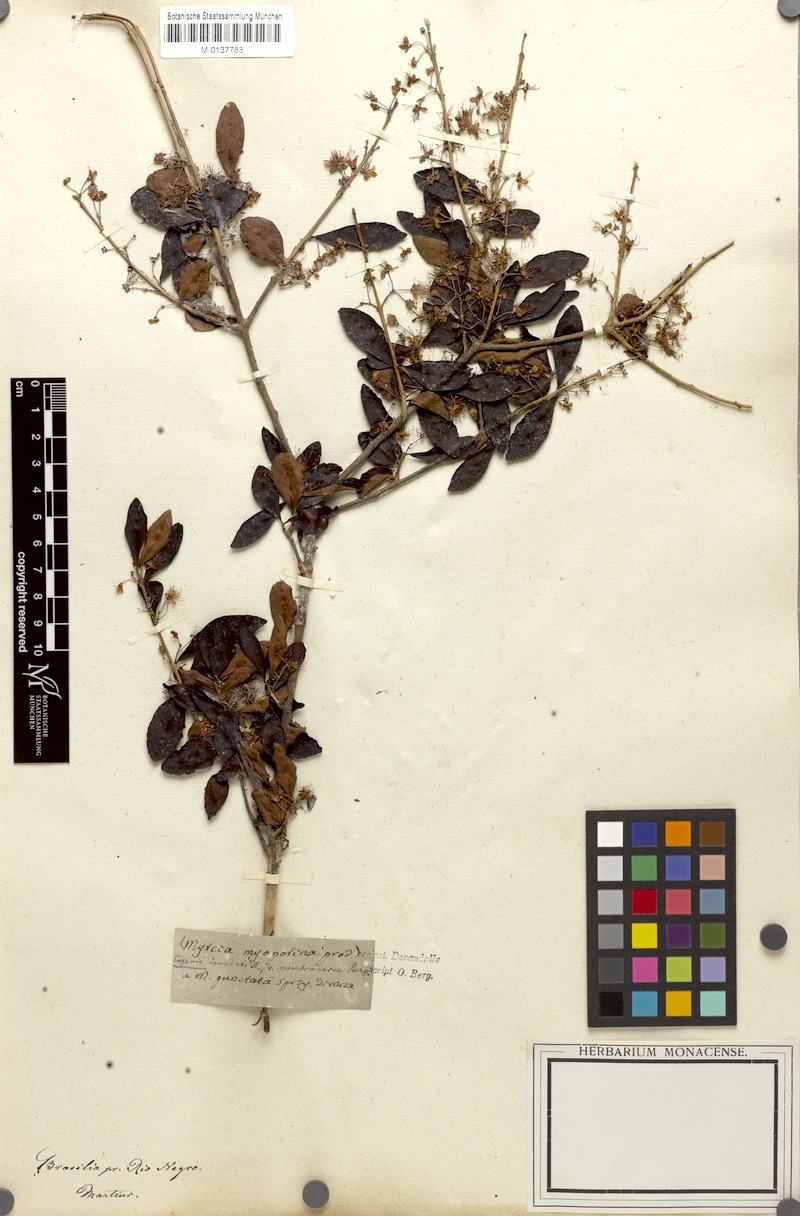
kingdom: Plantae
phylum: Tracheophyta
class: Magnoliopsida
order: Myrtales
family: Myrtaceae
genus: Eugenia
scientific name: Eugenia inundata
